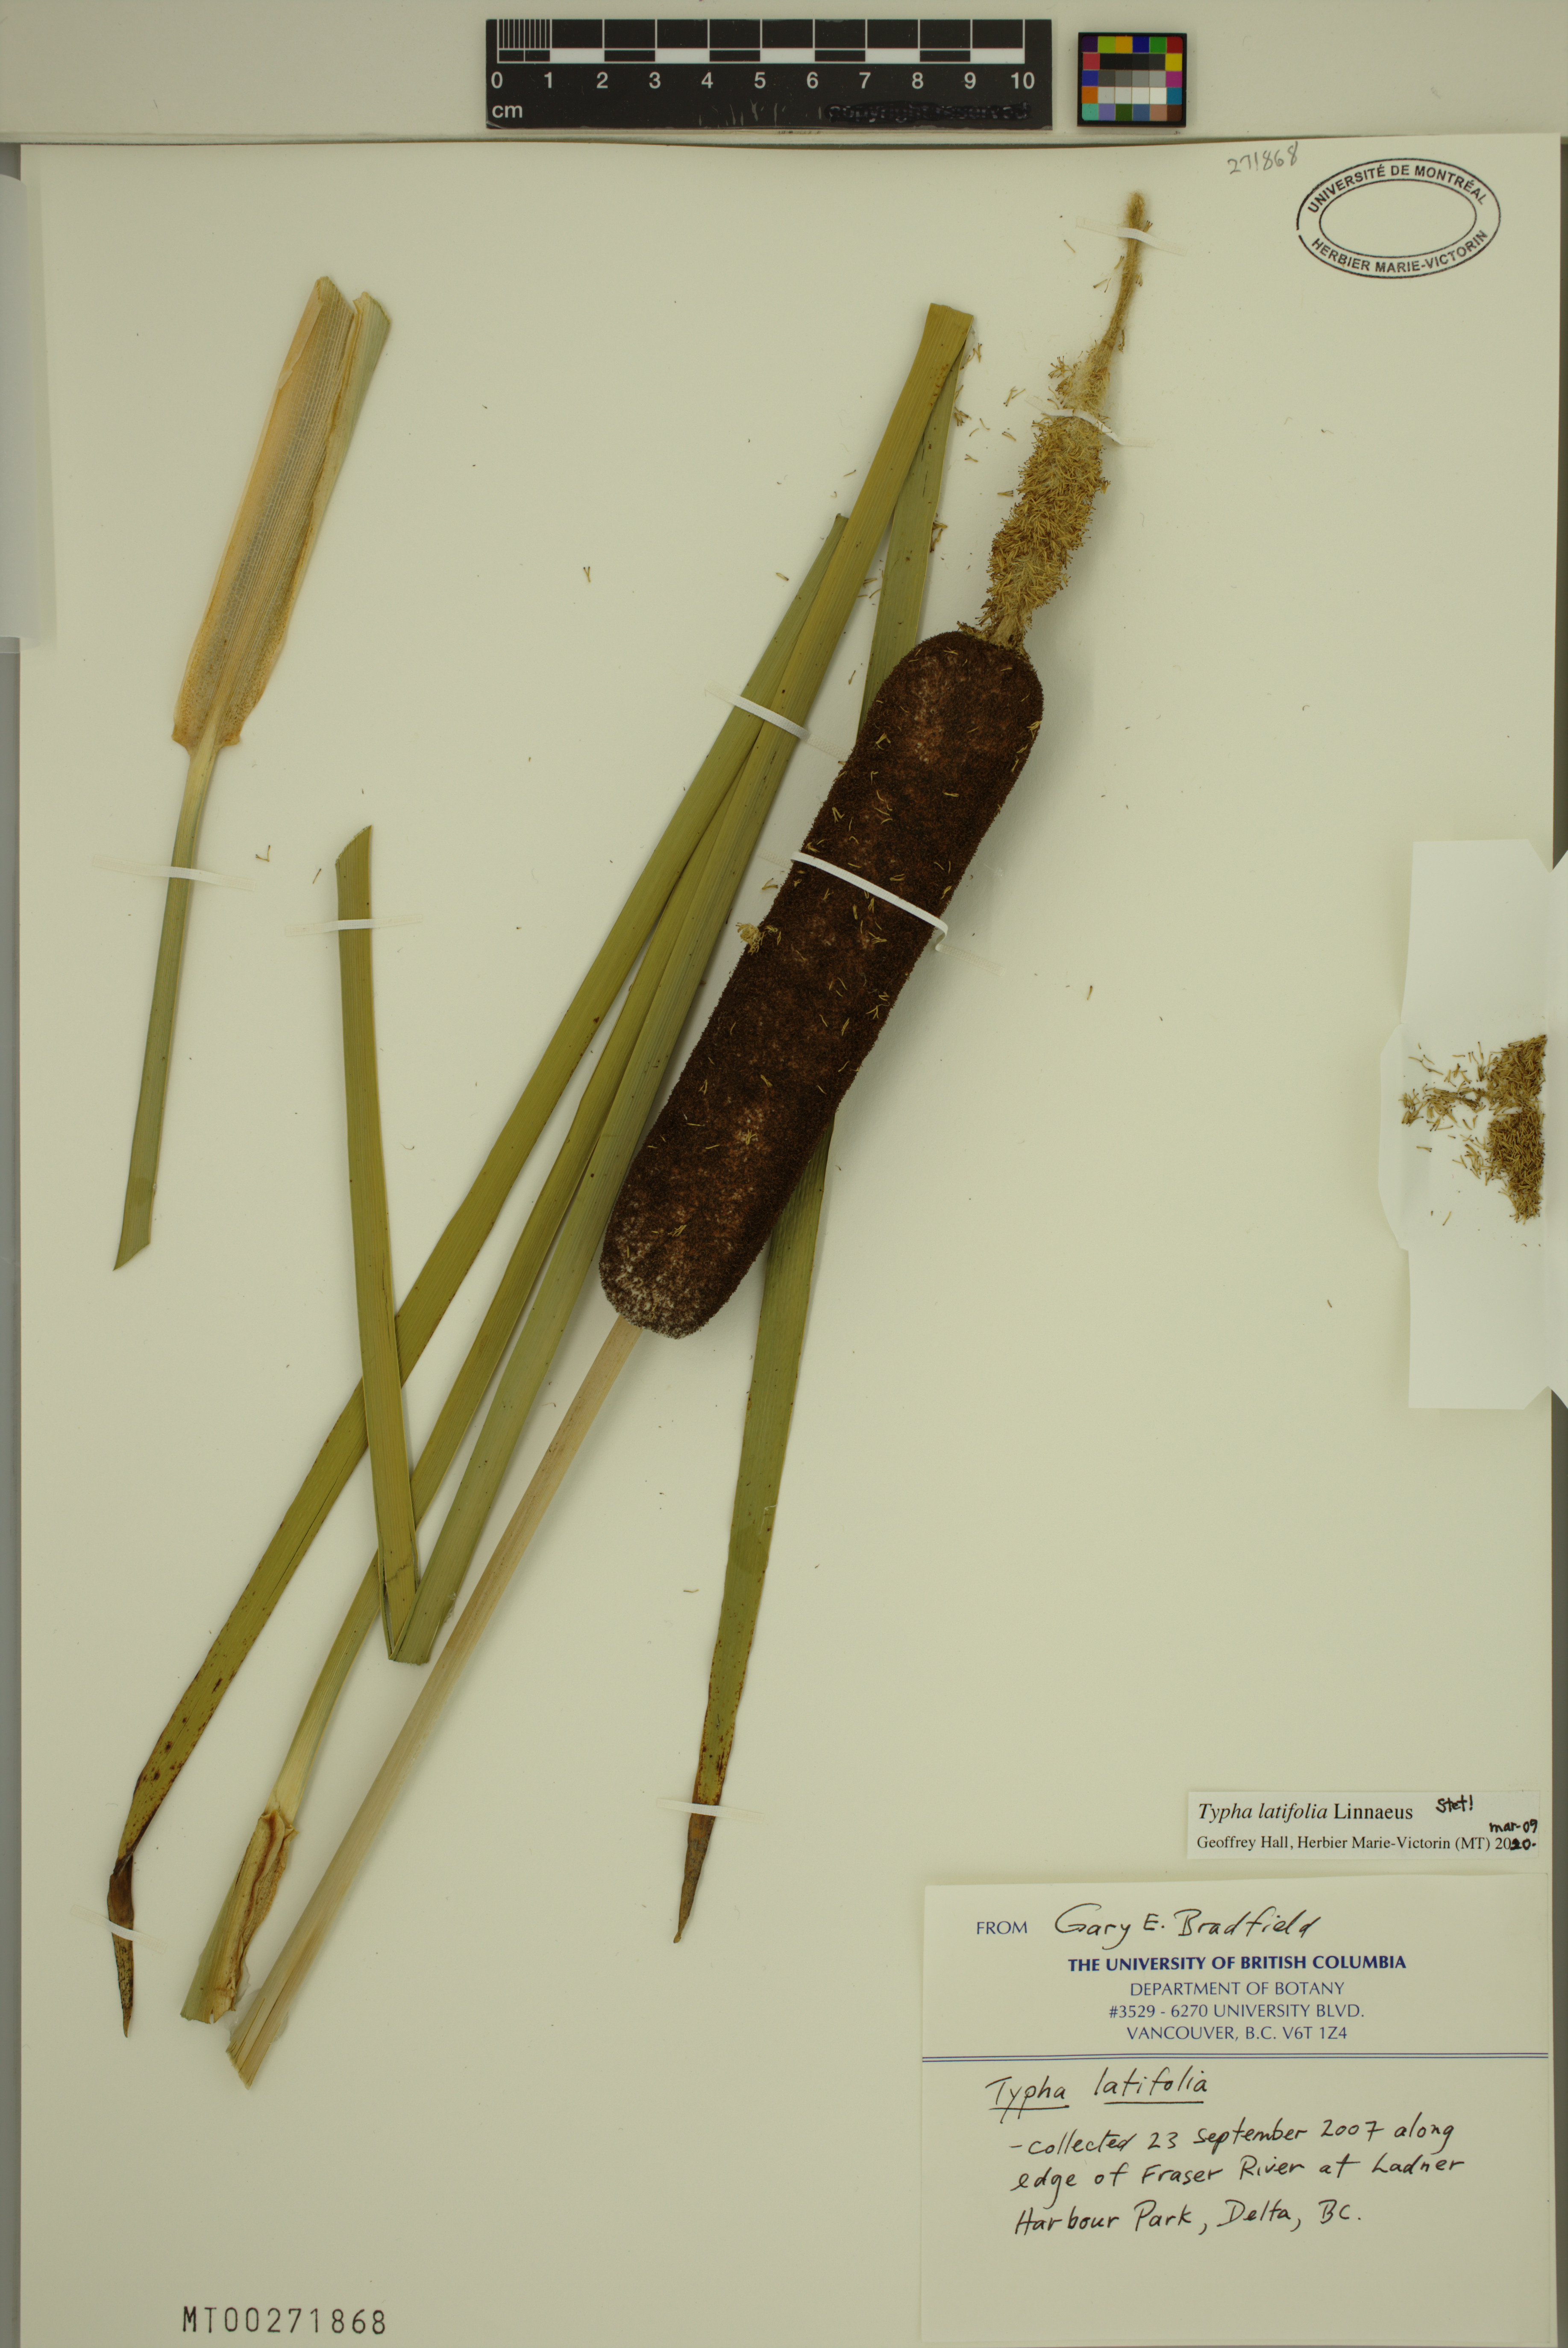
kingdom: Plantae
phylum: Tracheophyta
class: Liliopsida
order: Poales
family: Typhaceae
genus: Typha
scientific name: Typha latifolia
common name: Broadleaf cattail
